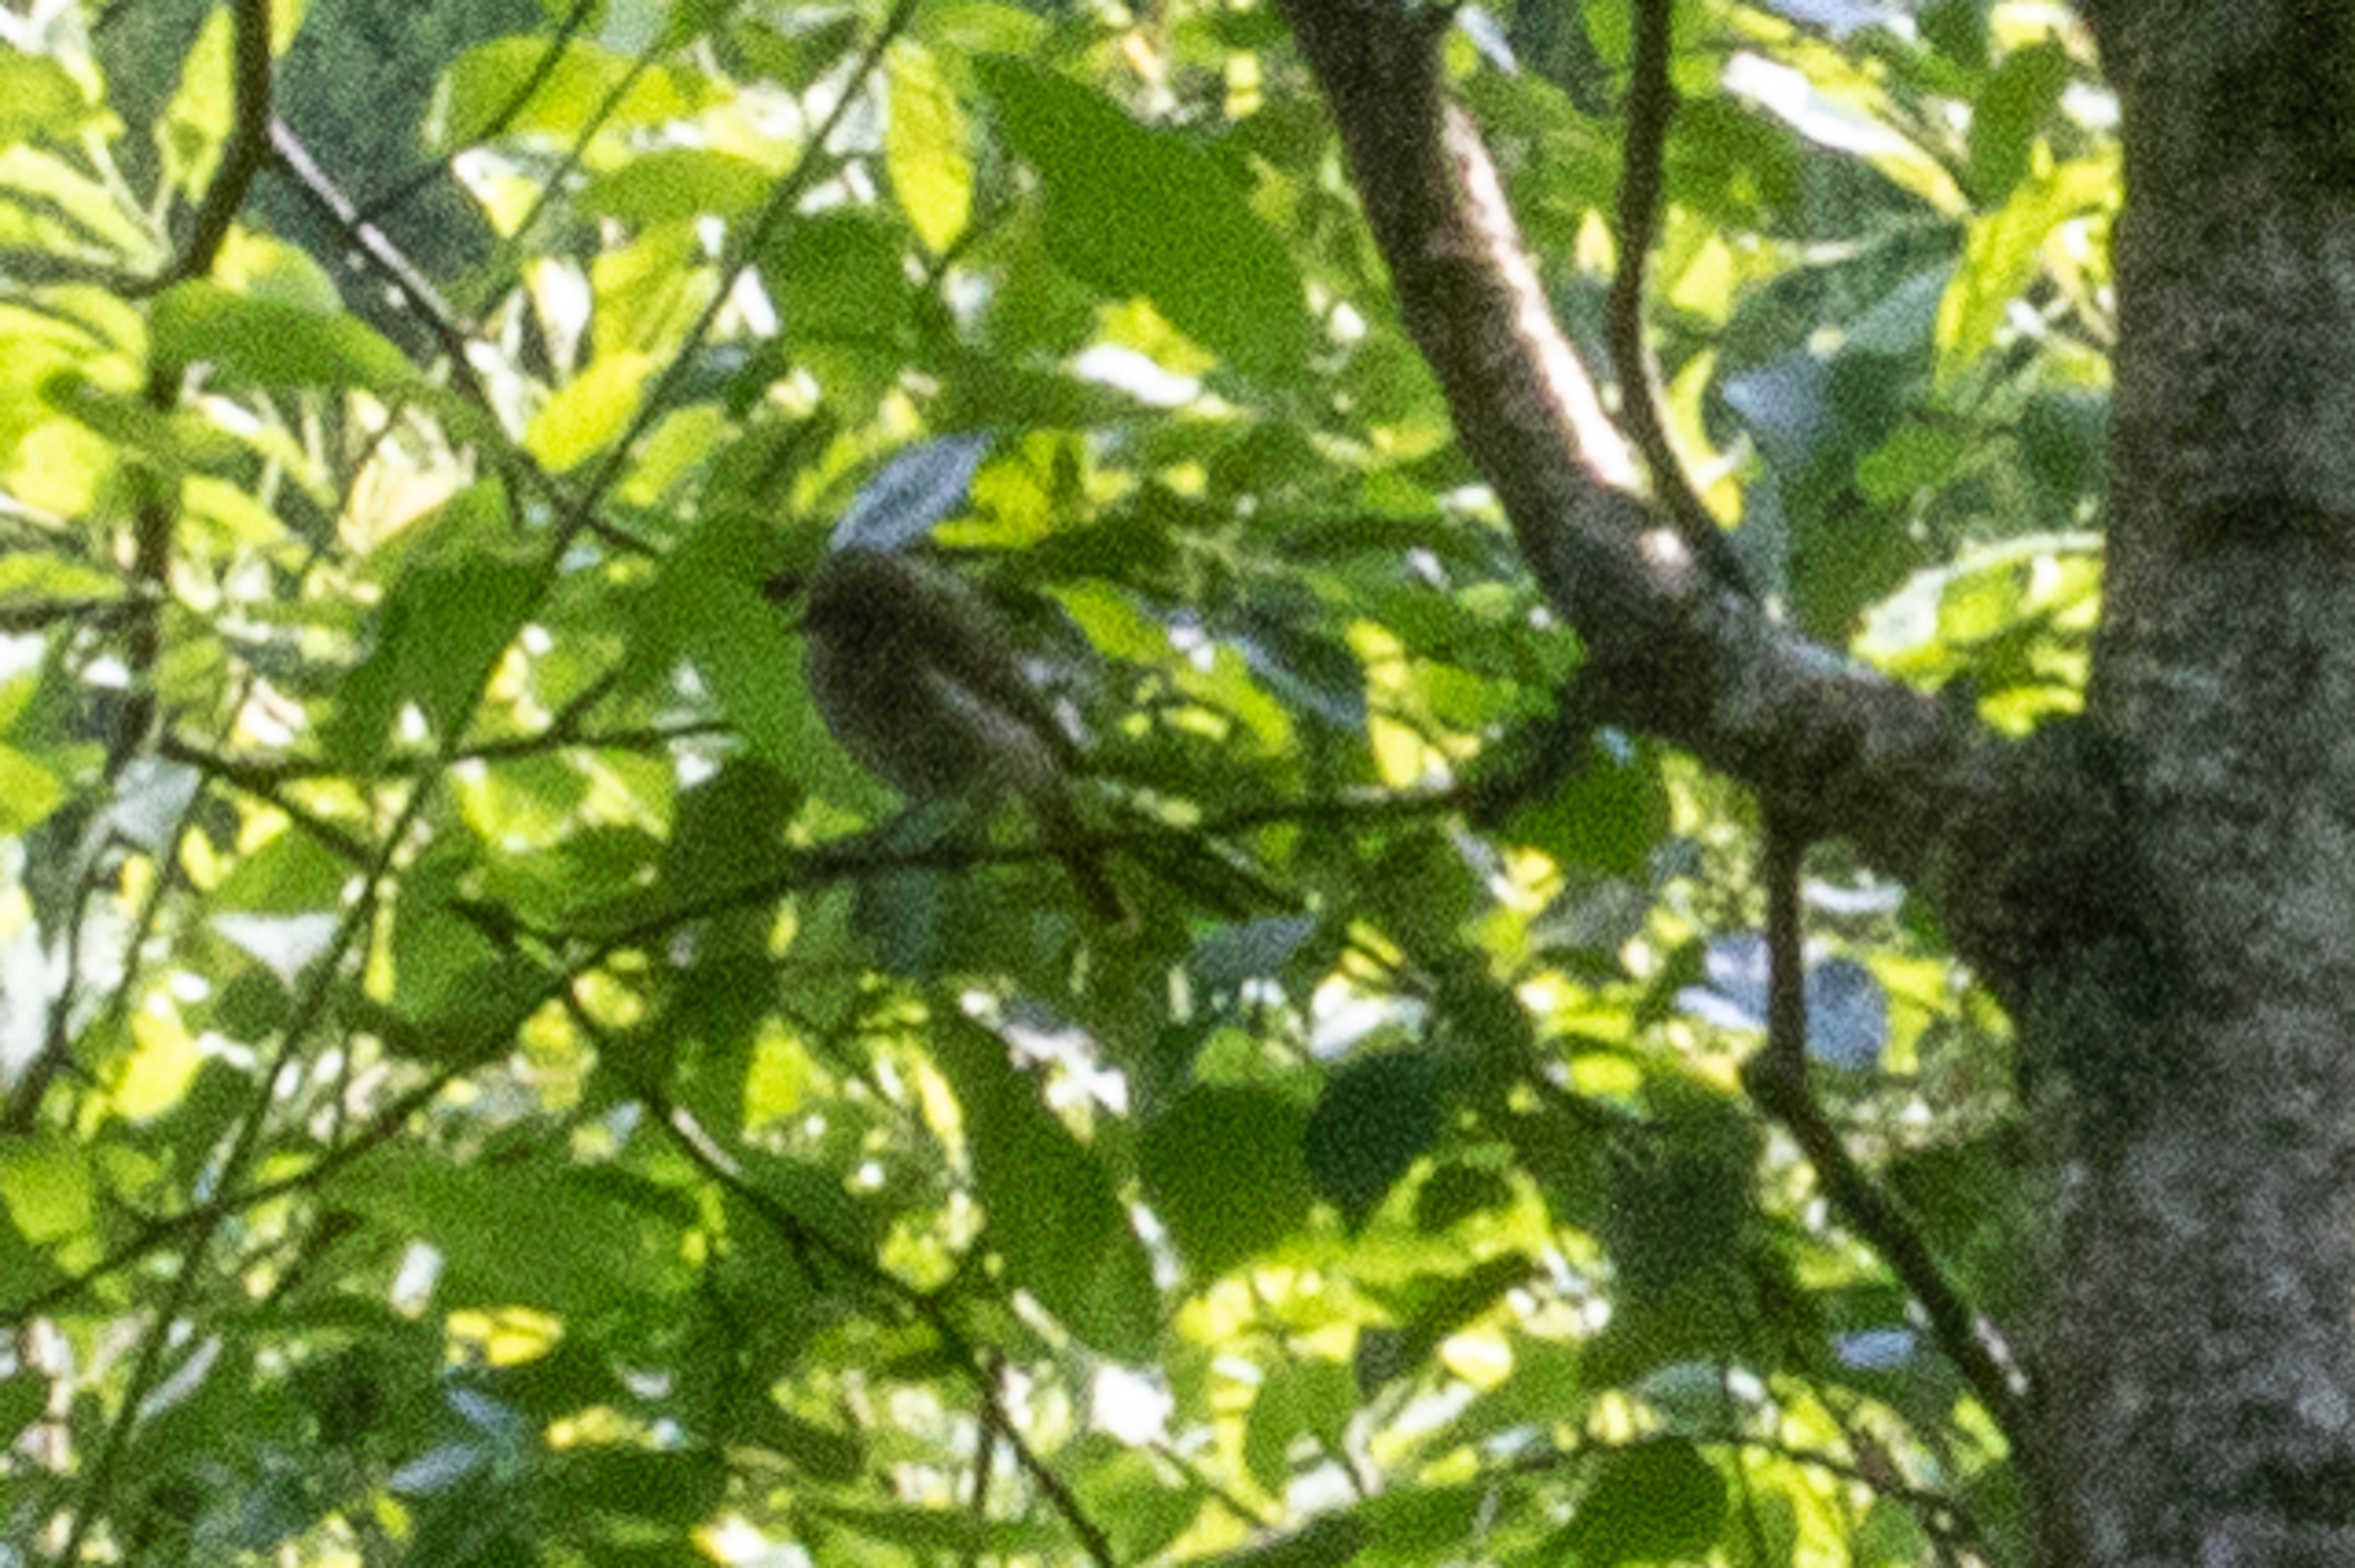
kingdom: Animalia
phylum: Chordata
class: Aves
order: Passeriformes
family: Muscicapidae
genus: Phoenicurus
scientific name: Phoenicurus phoenicurus
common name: Rødstjert
